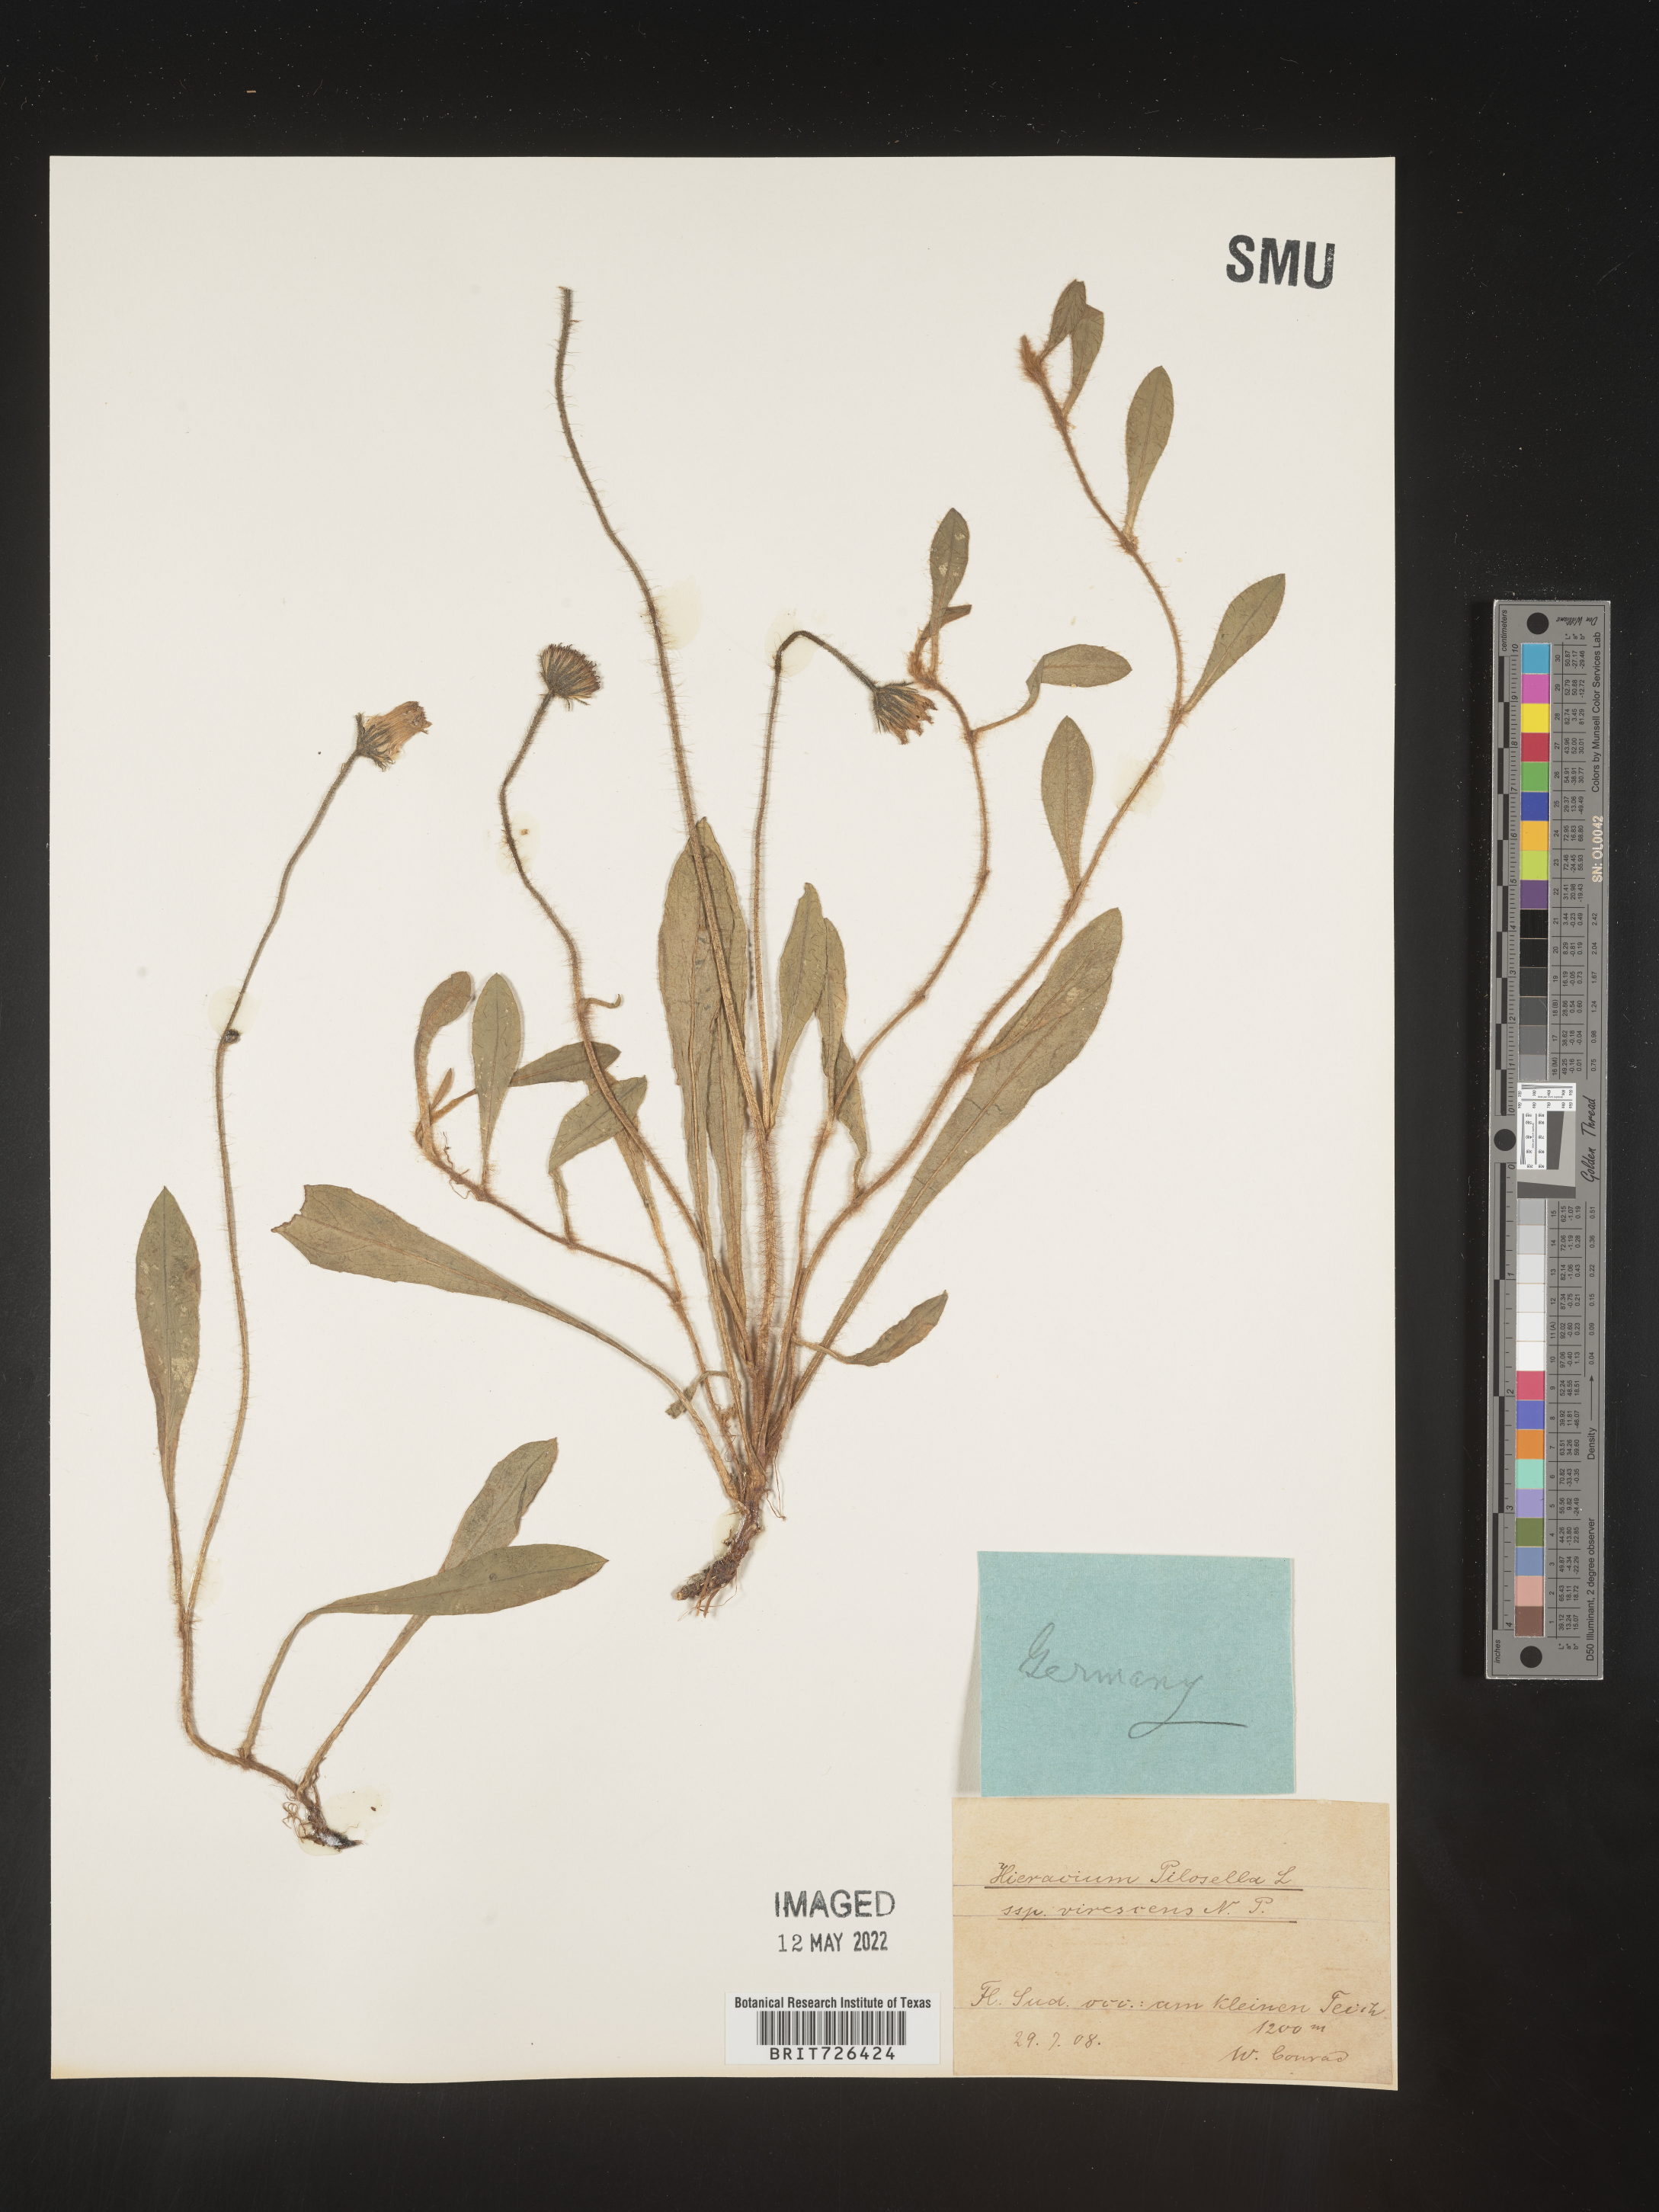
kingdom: Plantae
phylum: Tracheophyta
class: Magnoliopsida
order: Asterales
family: Asteraceae
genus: Hieracium
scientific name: Hieracium
